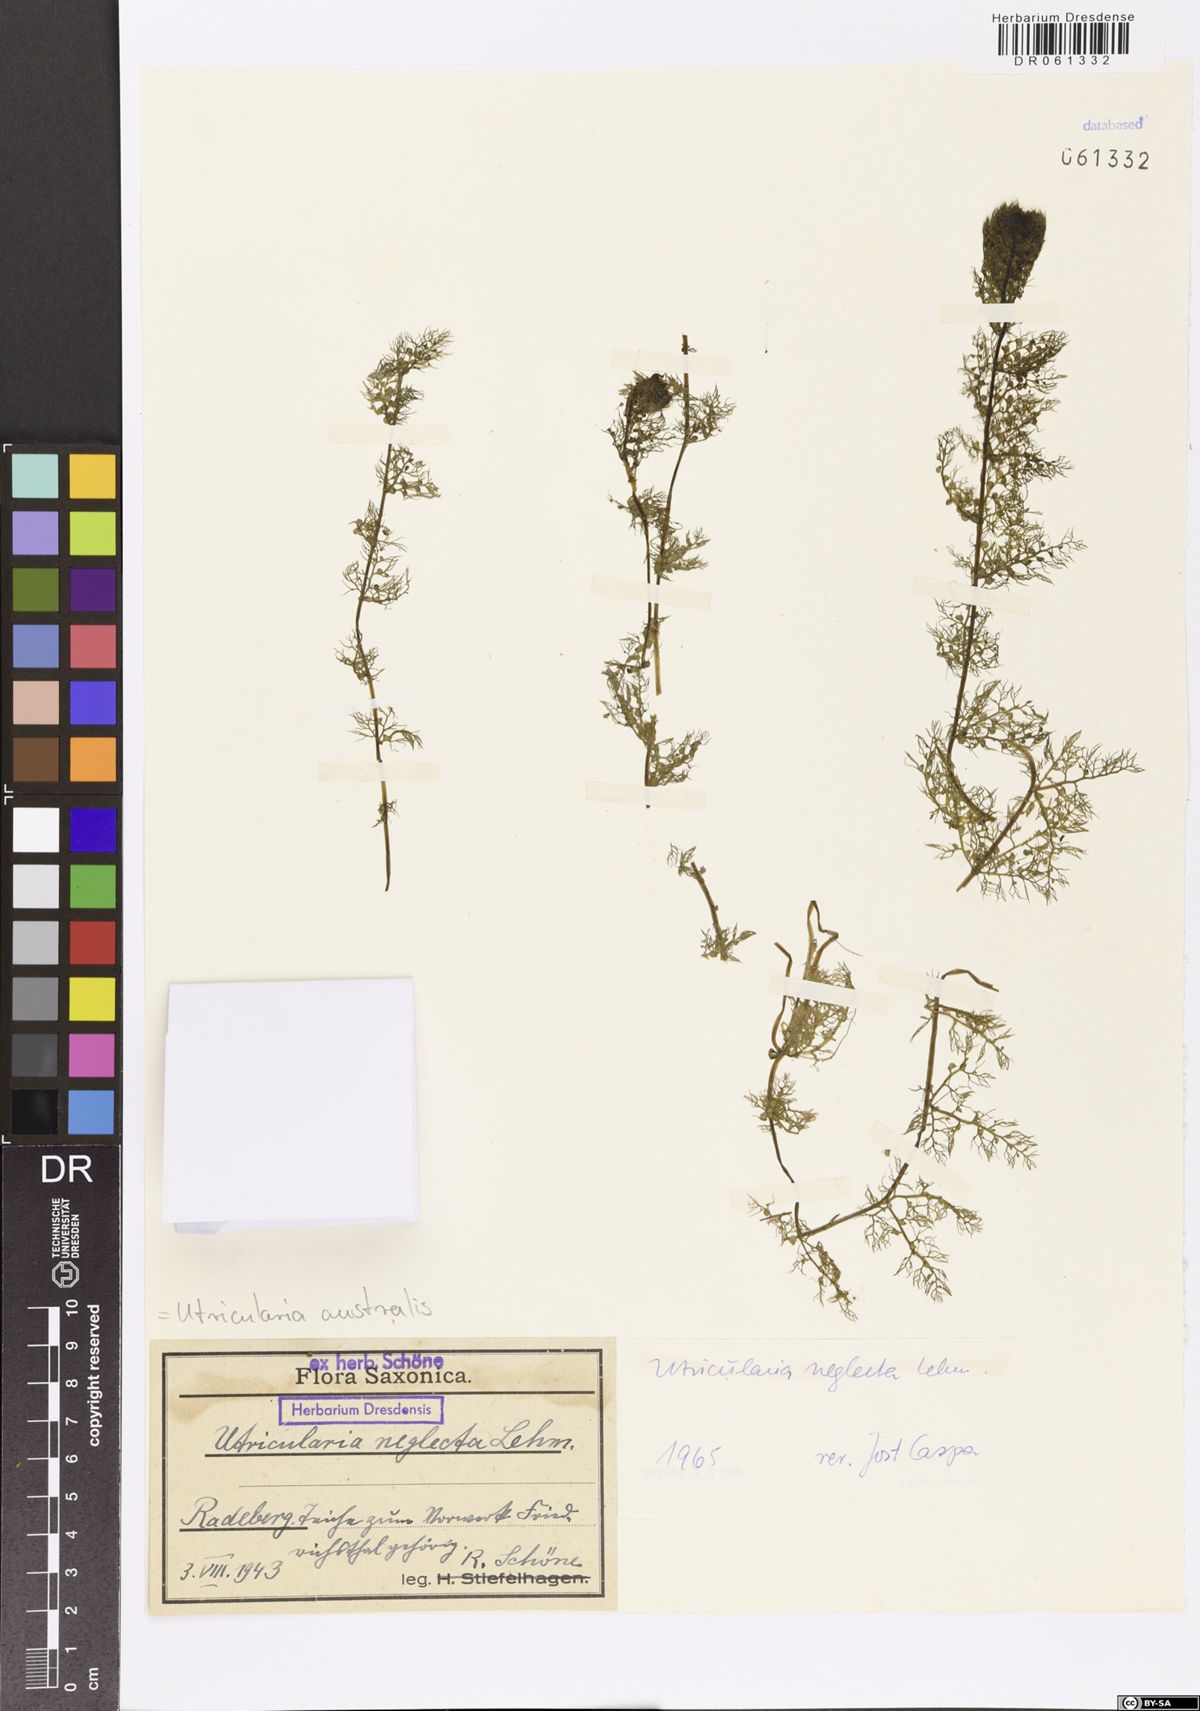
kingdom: Plantae
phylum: Tracheophyta
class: Magnoliopsida
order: Lamiales
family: Lentibulariaceae
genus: Utricularia
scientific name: Utricularia australis
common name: Bladderwort
